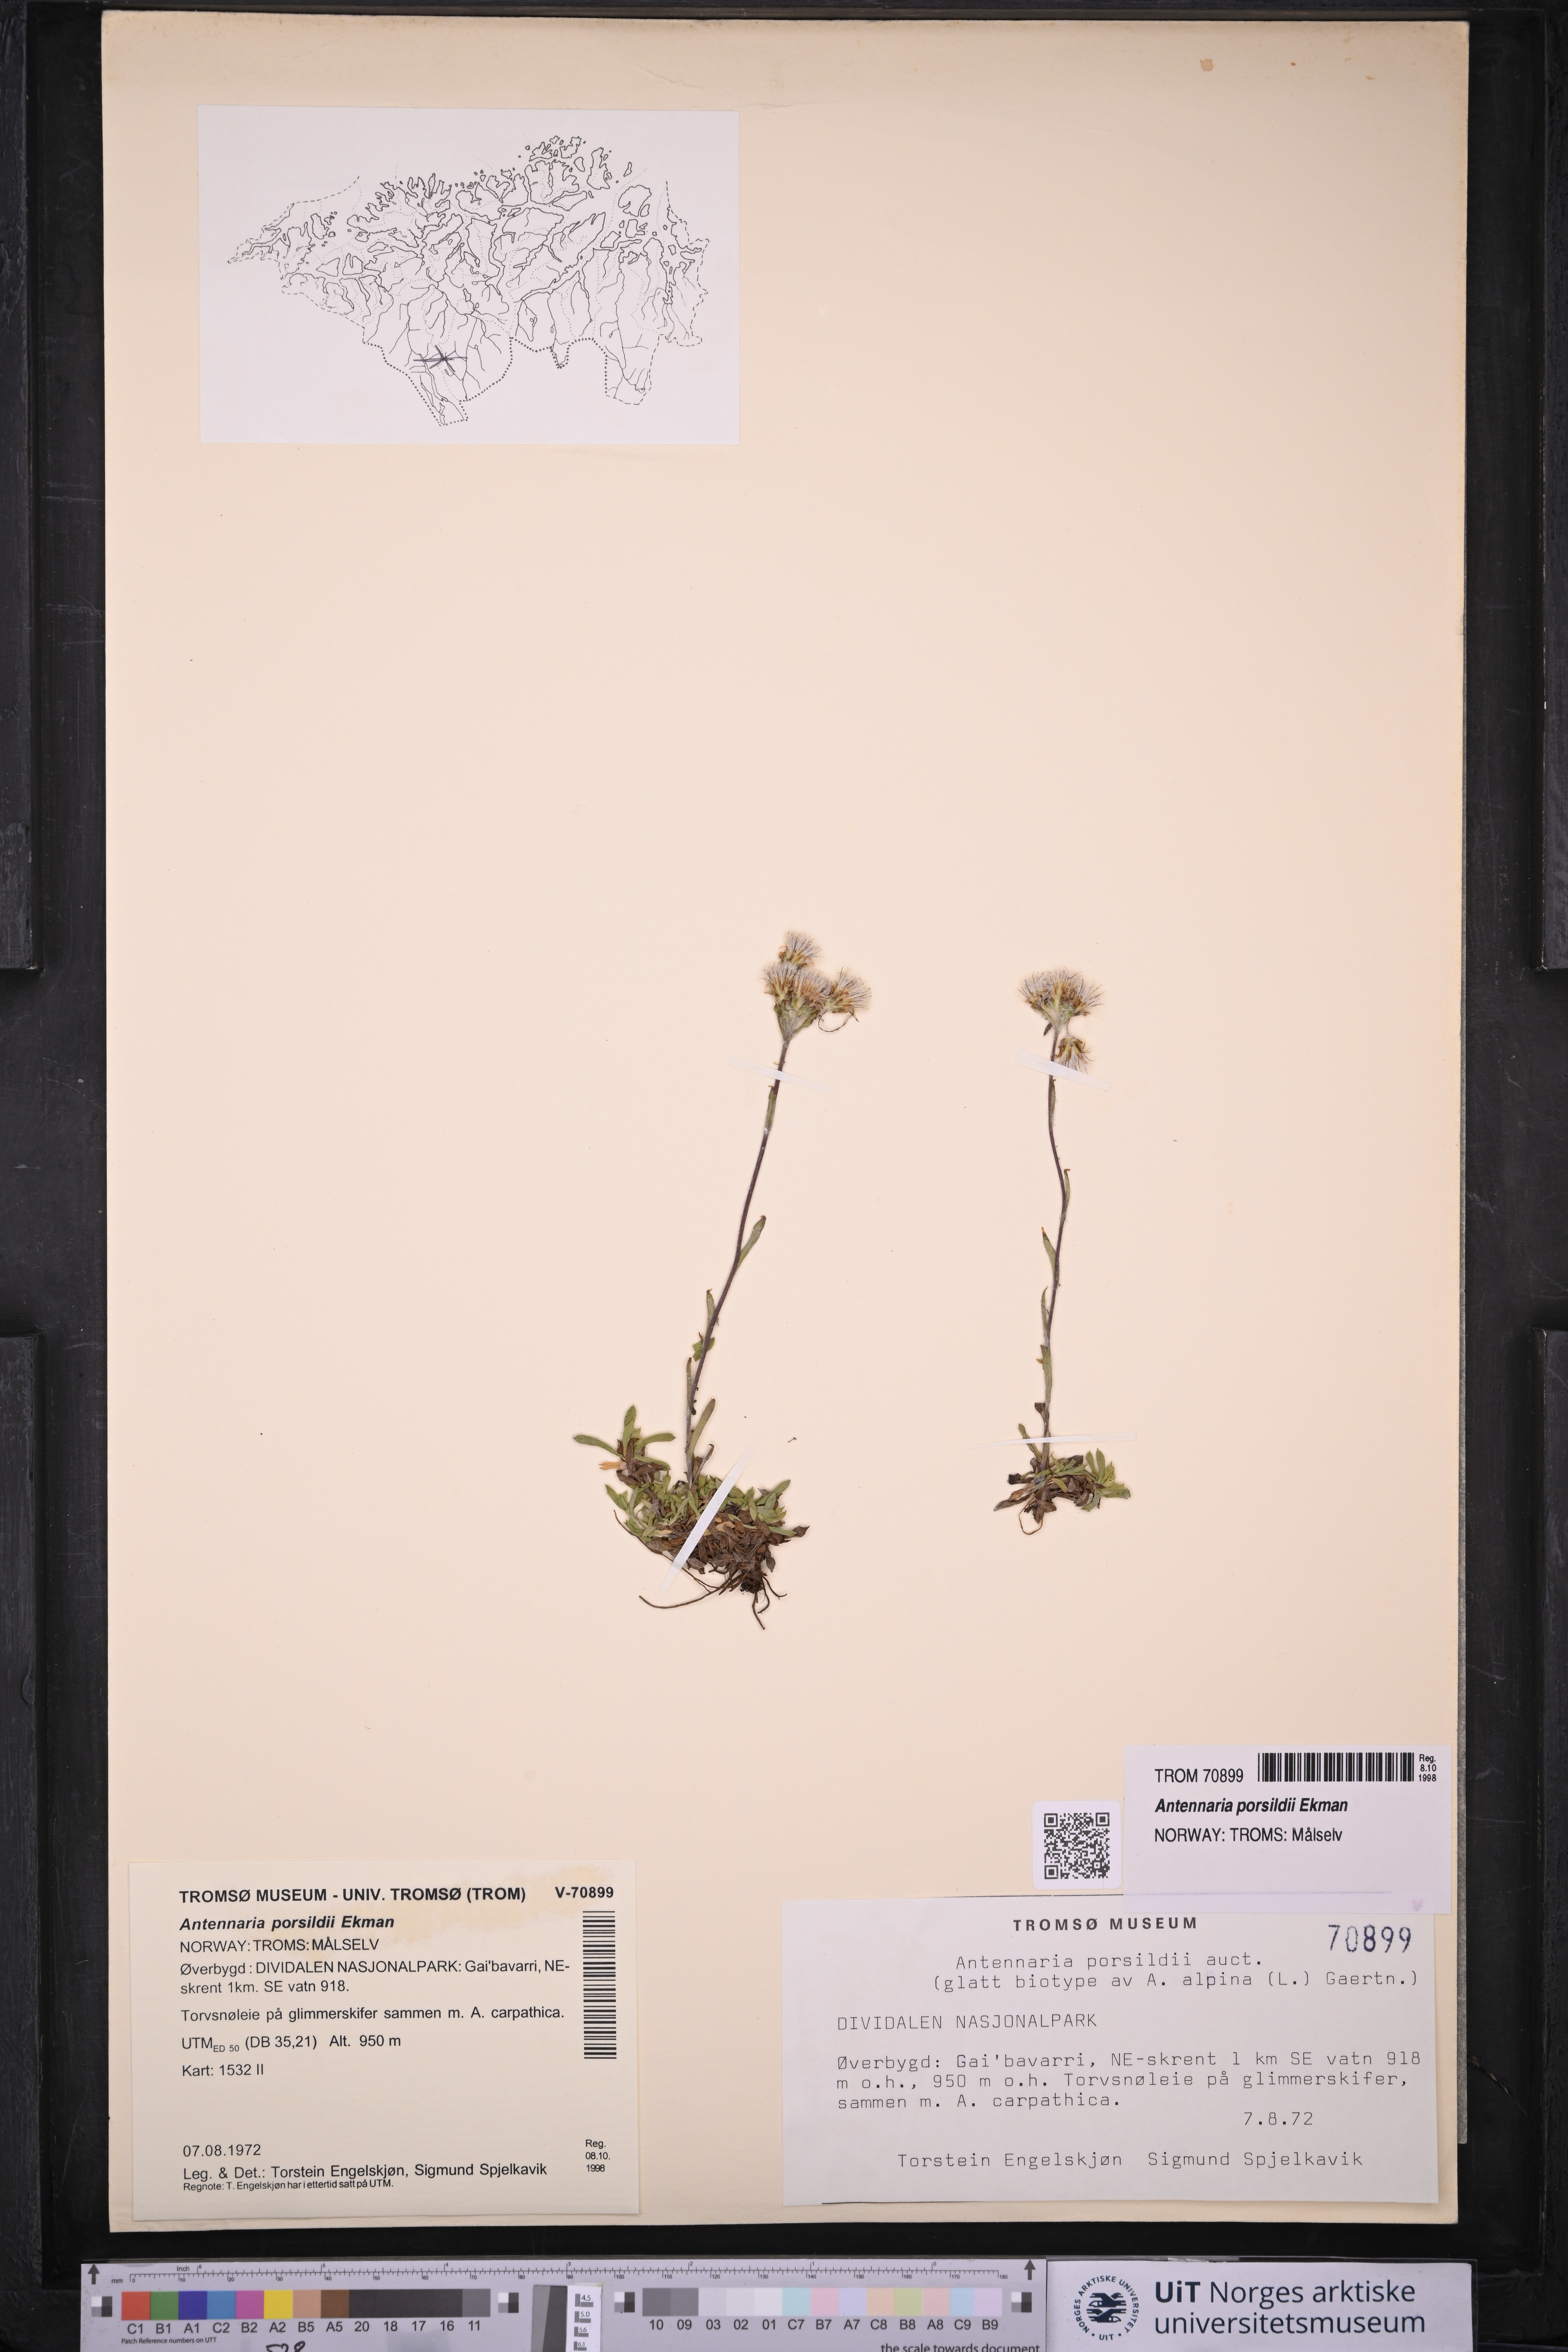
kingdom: Plantae
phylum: Tracheophyta
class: Magnoliopsida
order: Asterales
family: Asteraceae
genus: Antennaria
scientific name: Antennaria porsildii
